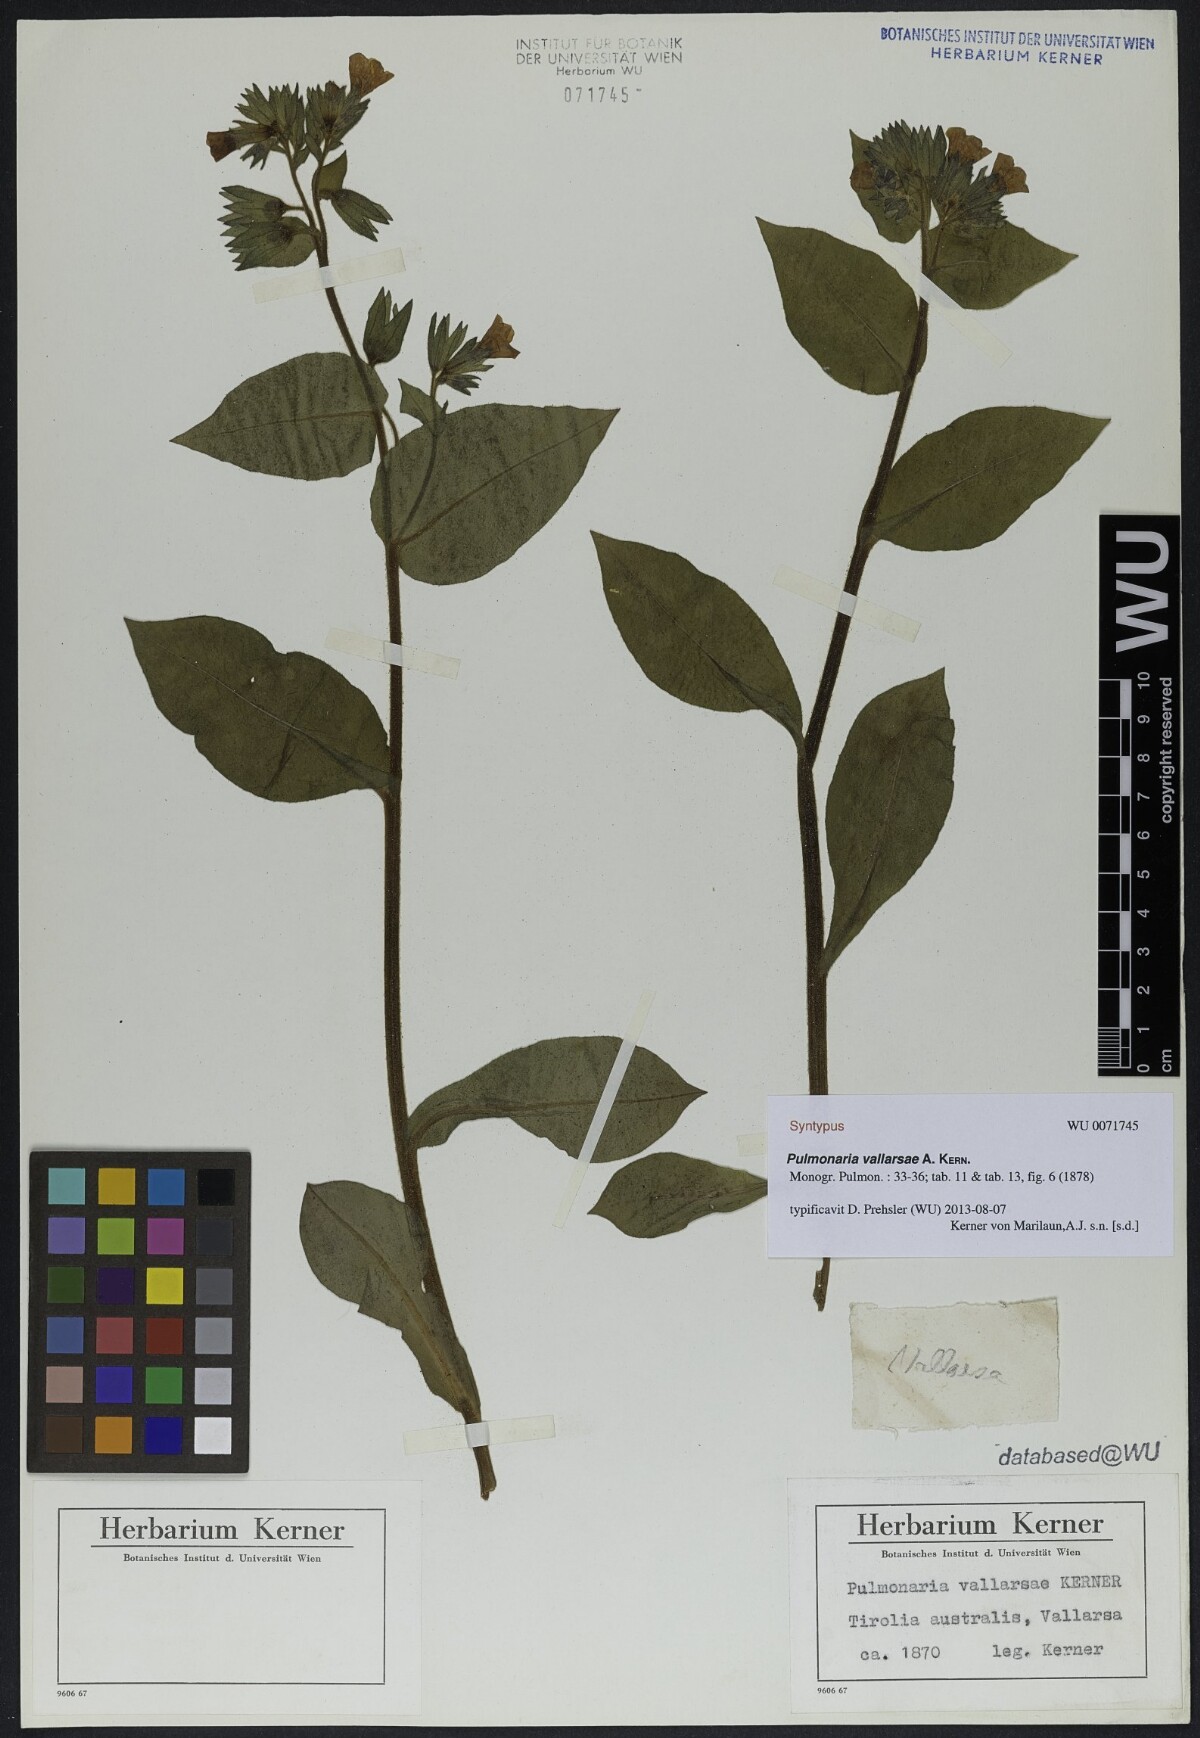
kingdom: Plantae
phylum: Tracheophyta
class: Magnoliopsida
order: Boraginales
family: Boraginaceae
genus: Pulmonaria
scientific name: Pulmonaria hirta
